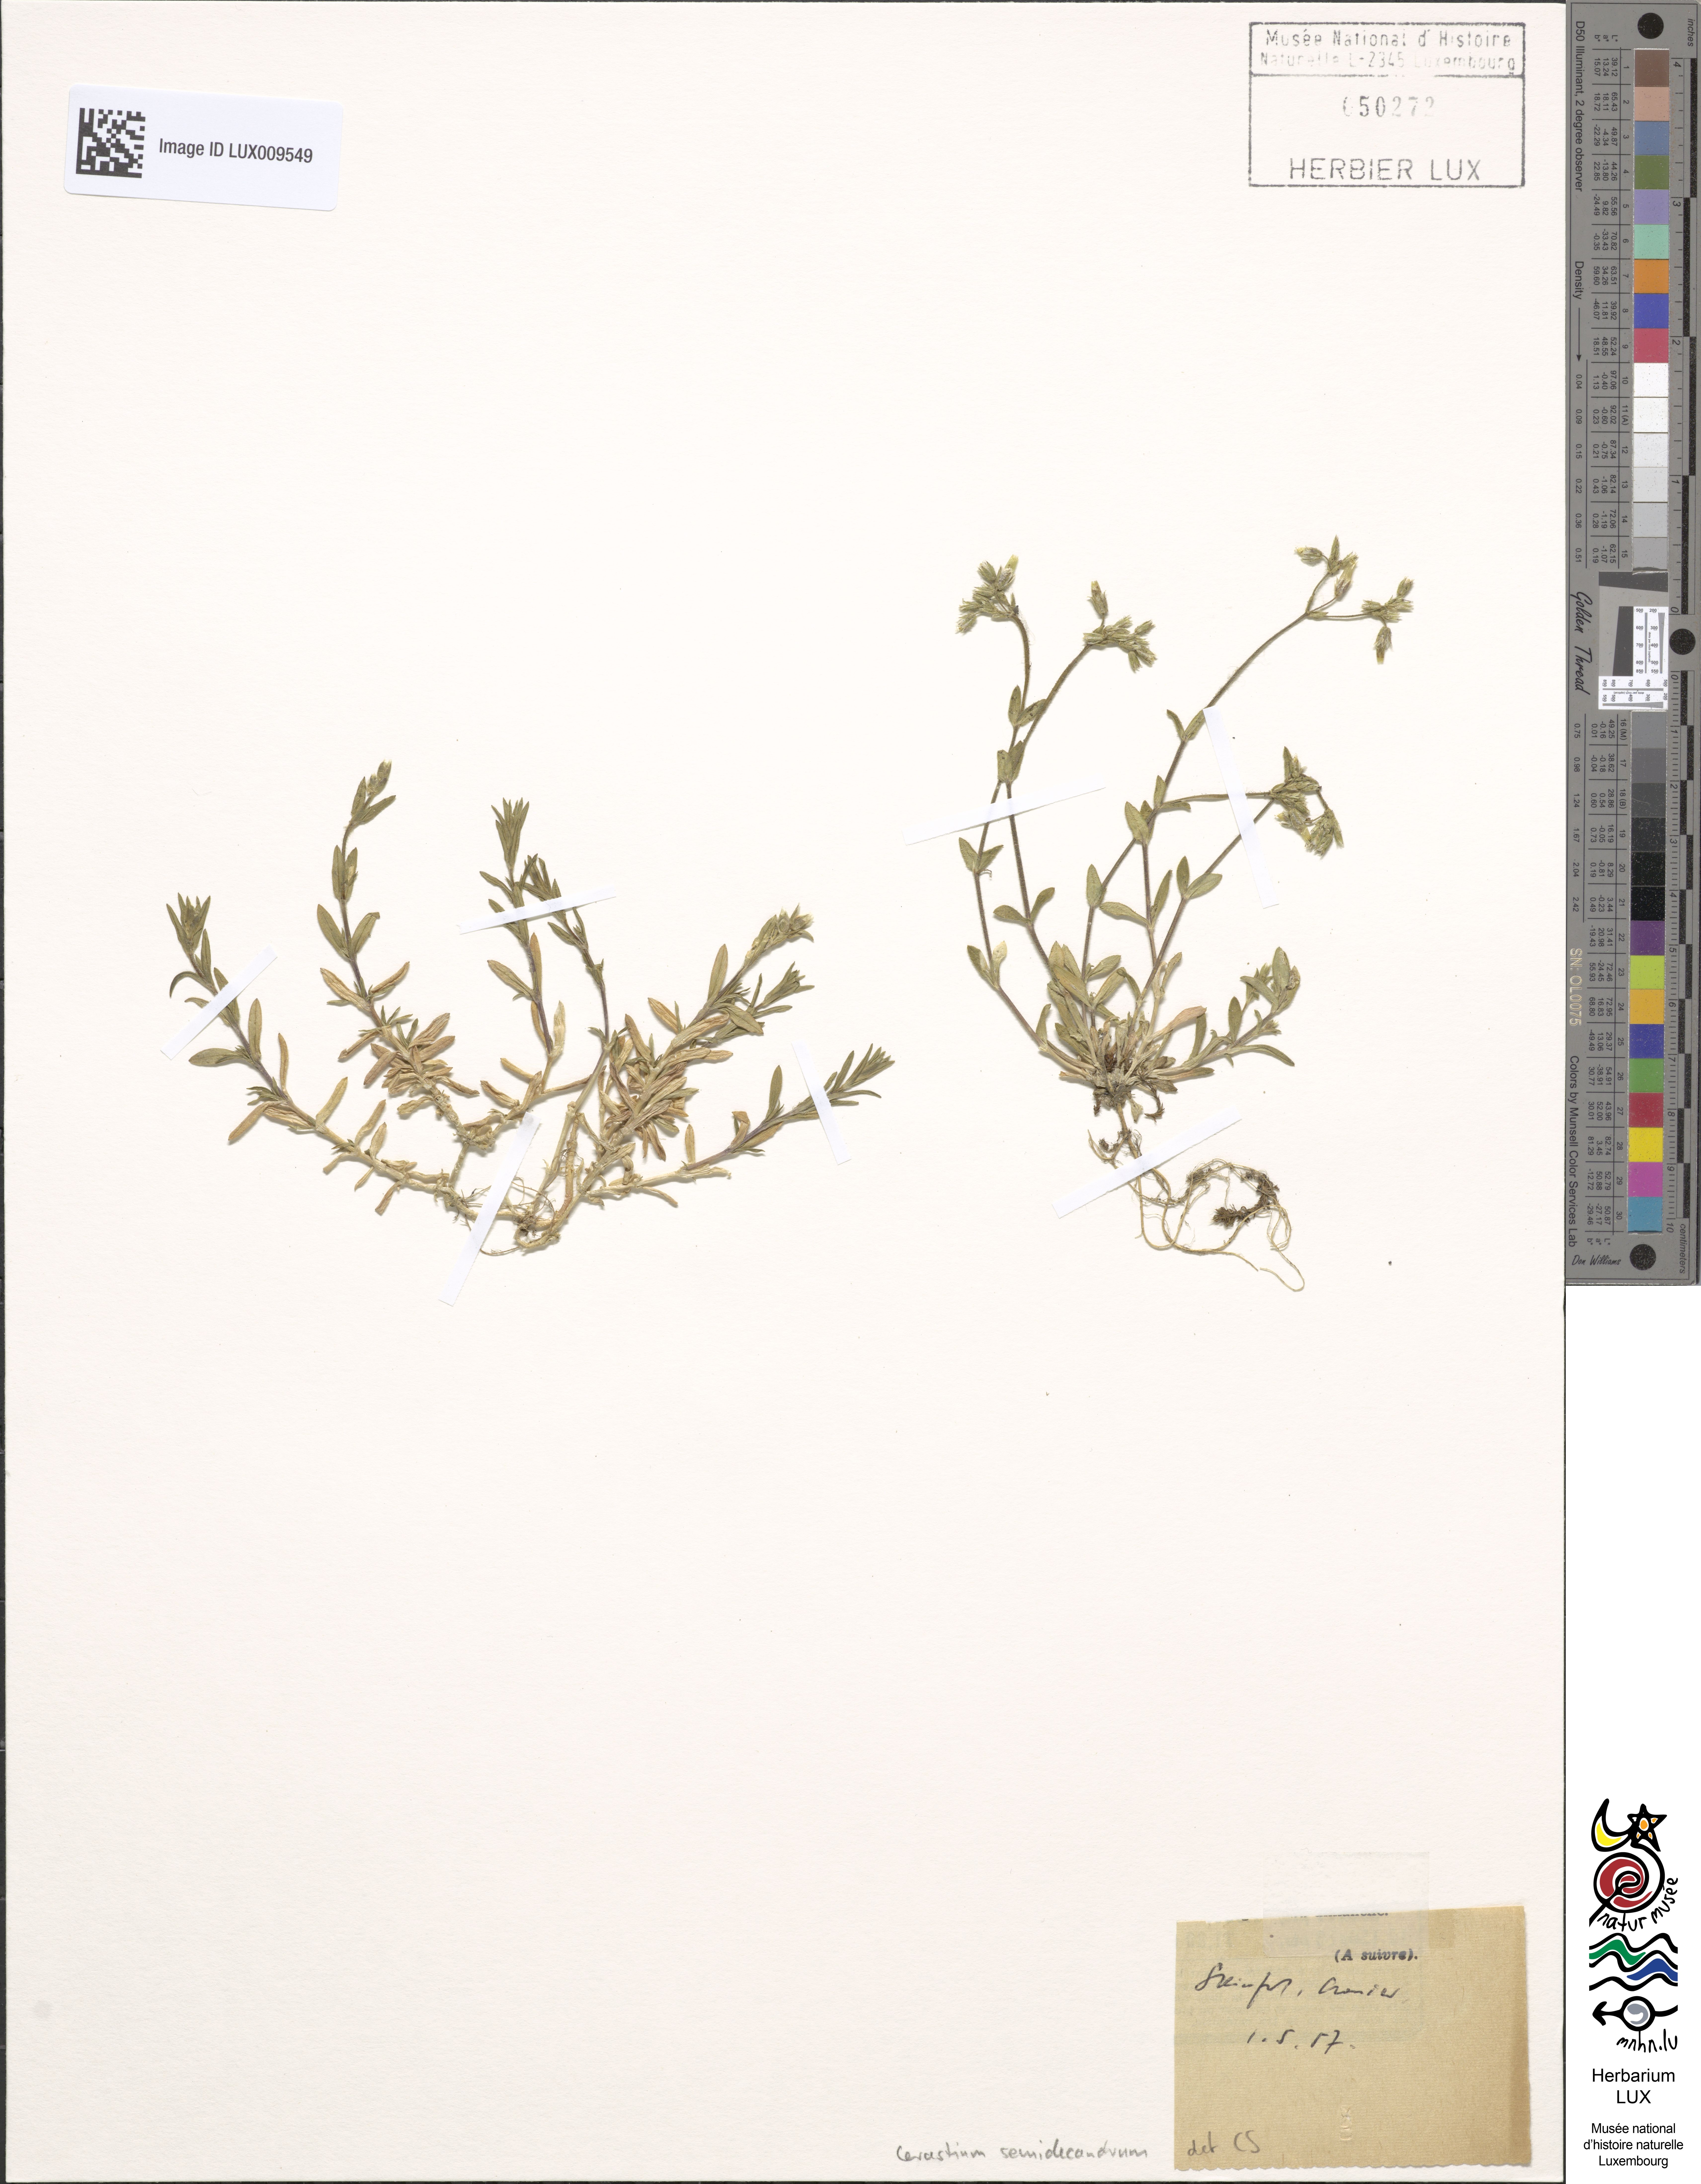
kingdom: Plantae
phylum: Tracheophyta
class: Magnoliopsida
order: Caryophyllales
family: Caryophyllaceae
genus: Cerastium
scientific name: Cerastium semidecandrum
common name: Little mouse-ear
